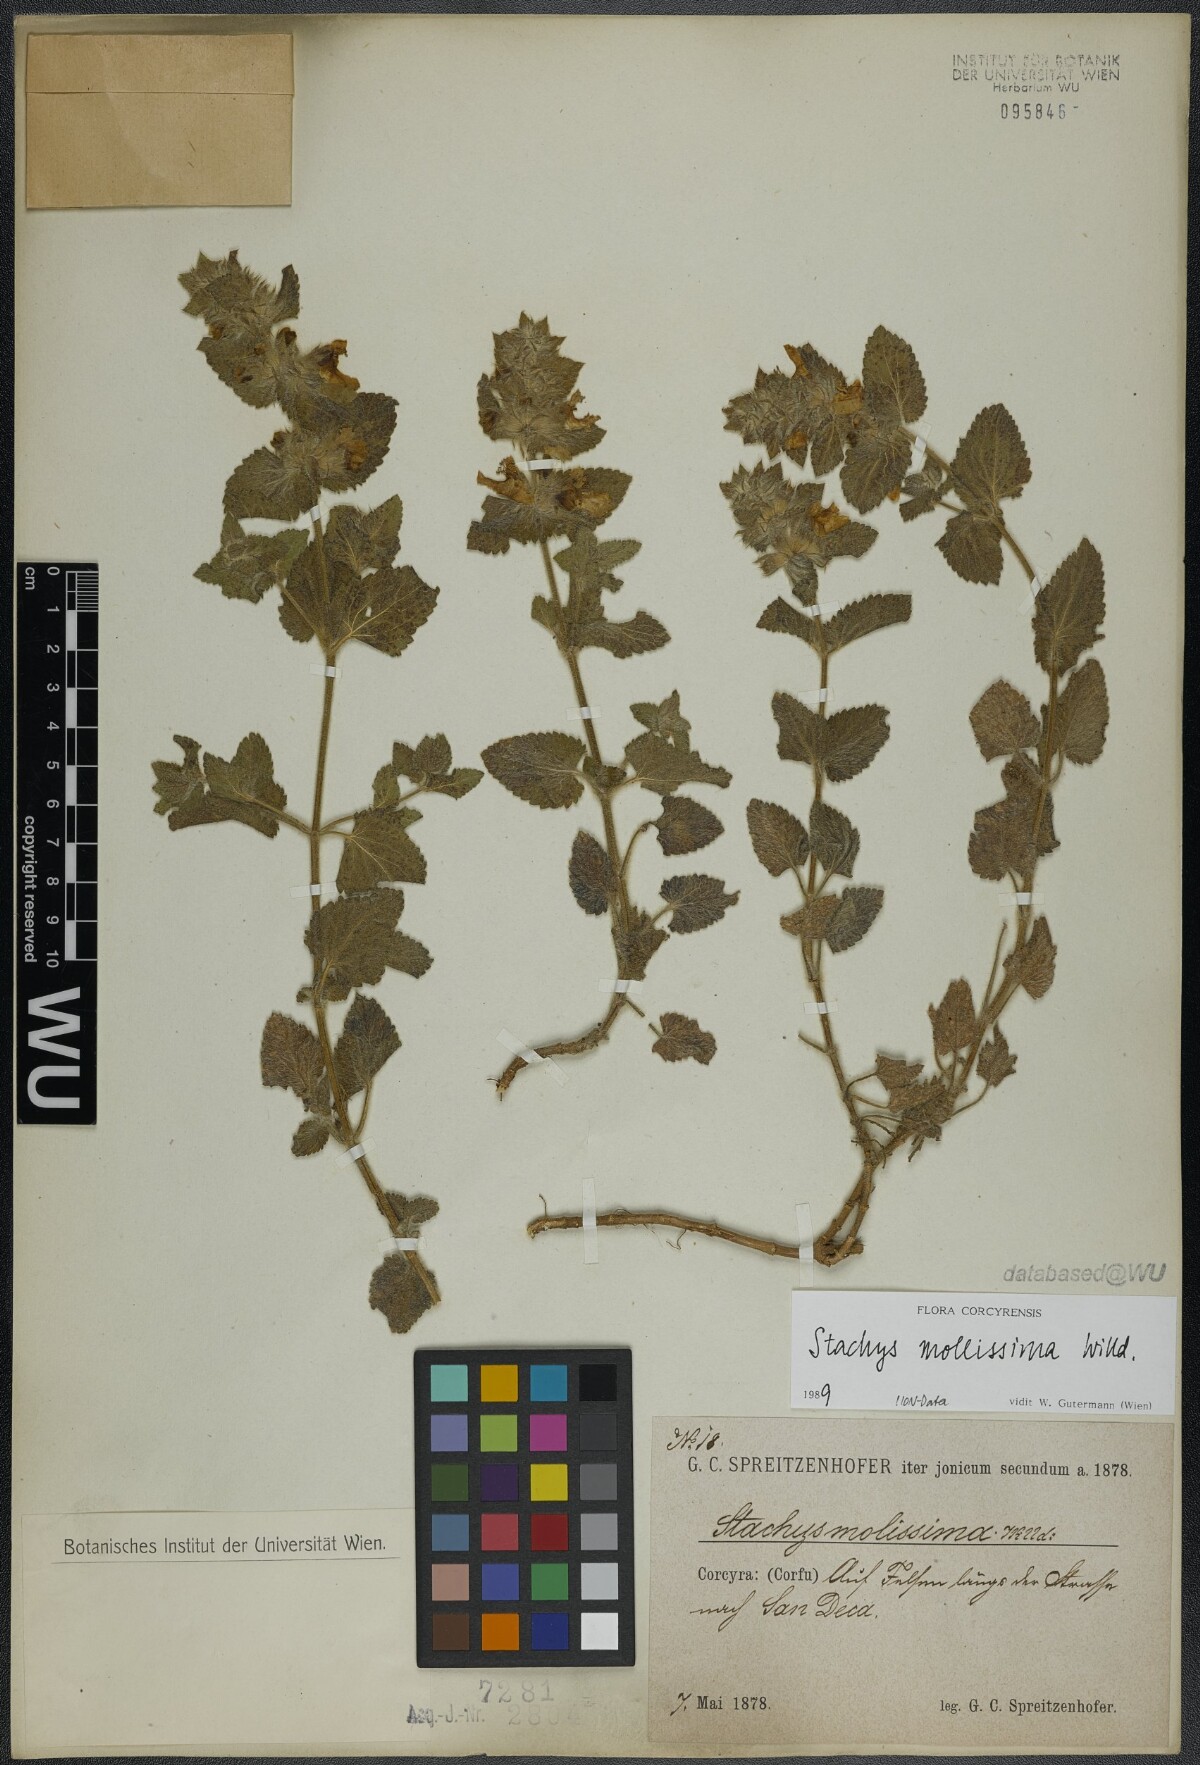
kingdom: Plantae
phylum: Tracheophyta
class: Magnoliopsida
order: Lamiales
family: Lamiaceae
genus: Stachys
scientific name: Stachys mollissima
